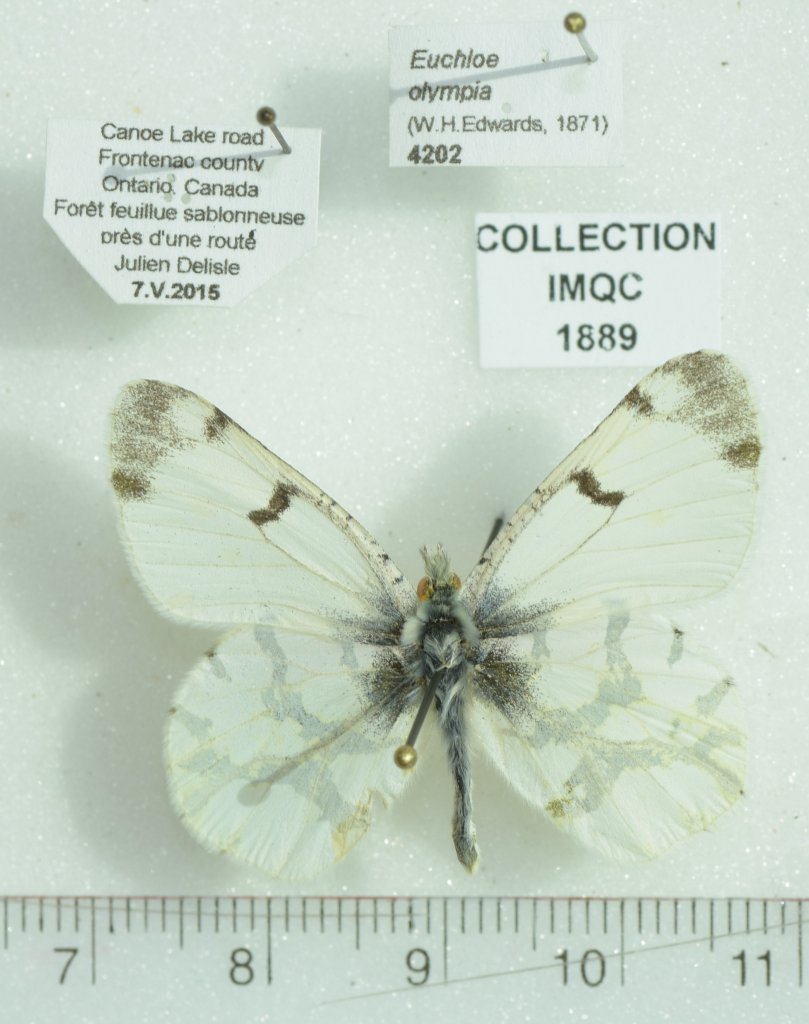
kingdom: Animalia
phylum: Arthropoda
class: Insecta
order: Lepidoptera
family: Pieridae
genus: Euchloe
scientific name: Euchloe olympia
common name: Olympia Marble
